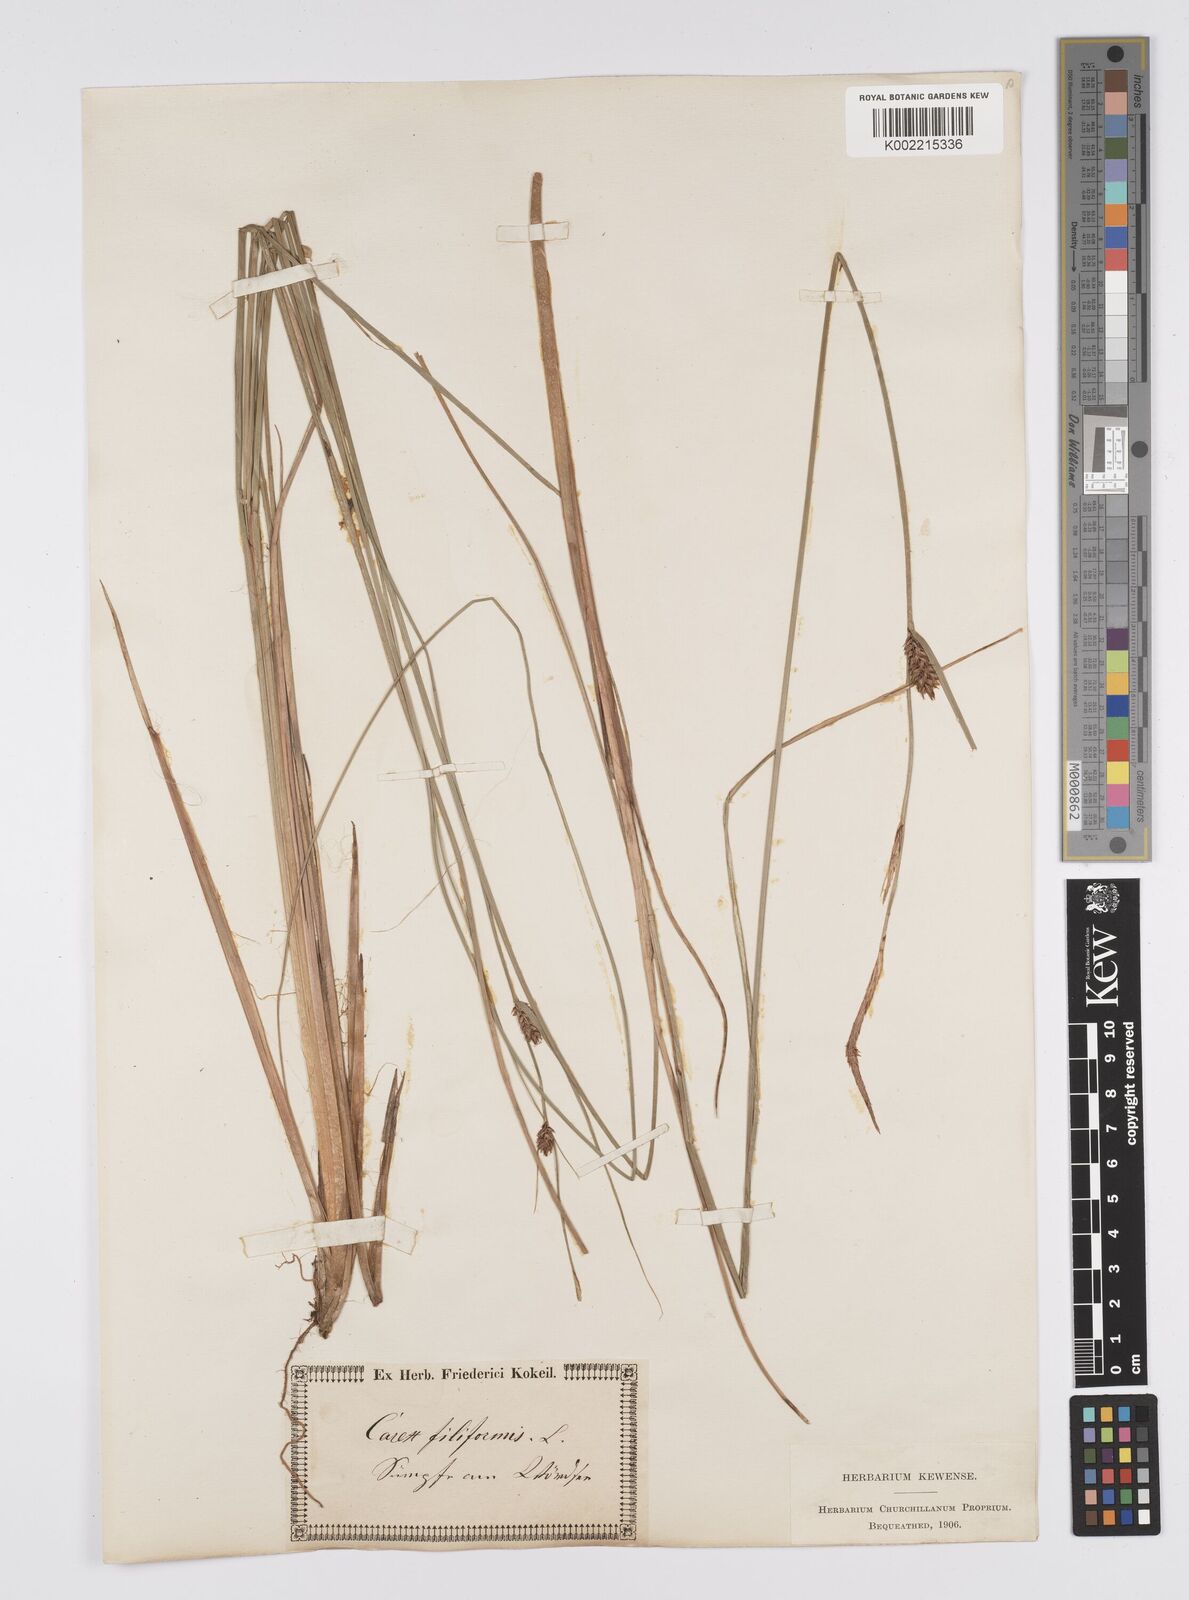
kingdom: Plantae
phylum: Tracheophyta
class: Liliopsida
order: Poales
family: Cyperaceae
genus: Carex
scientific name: Carex lasiocarpa
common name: Slender sedge
